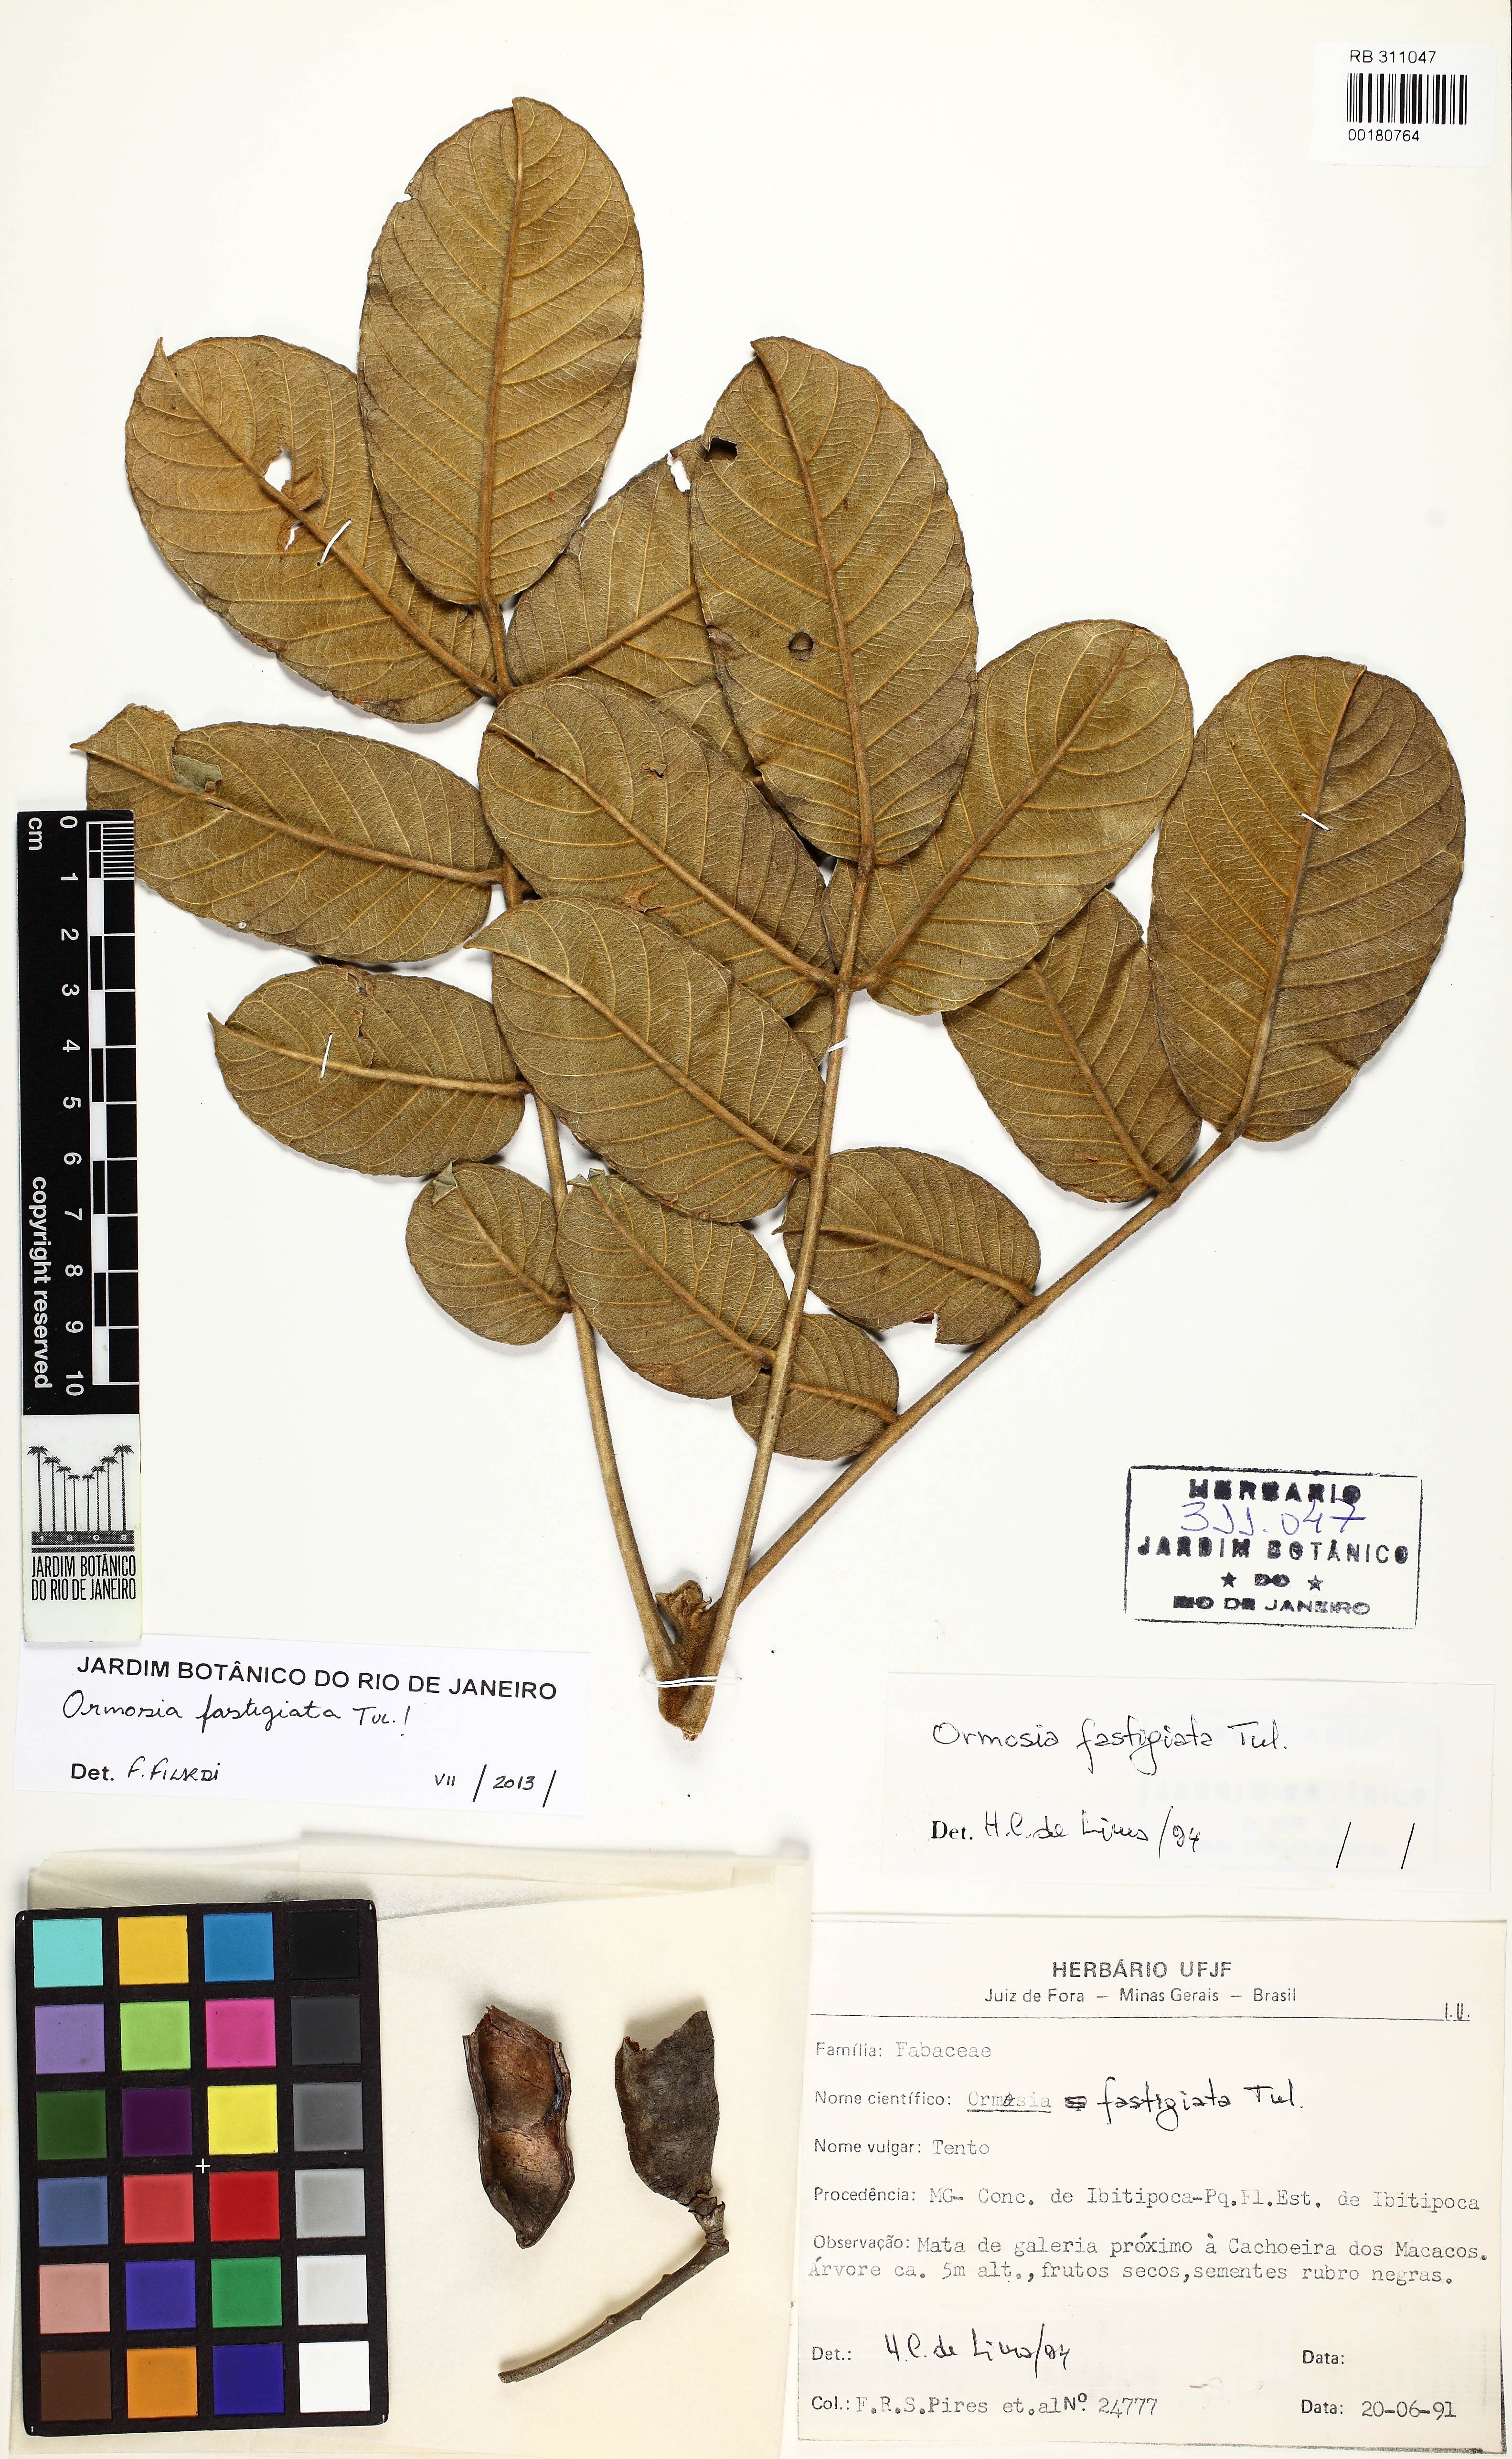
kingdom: Plantae
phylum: Tracheophyta
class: Magnoliopsida
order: Fabales
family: Fabaceae
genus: Ormosia
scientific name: Ormosia fastigiata
